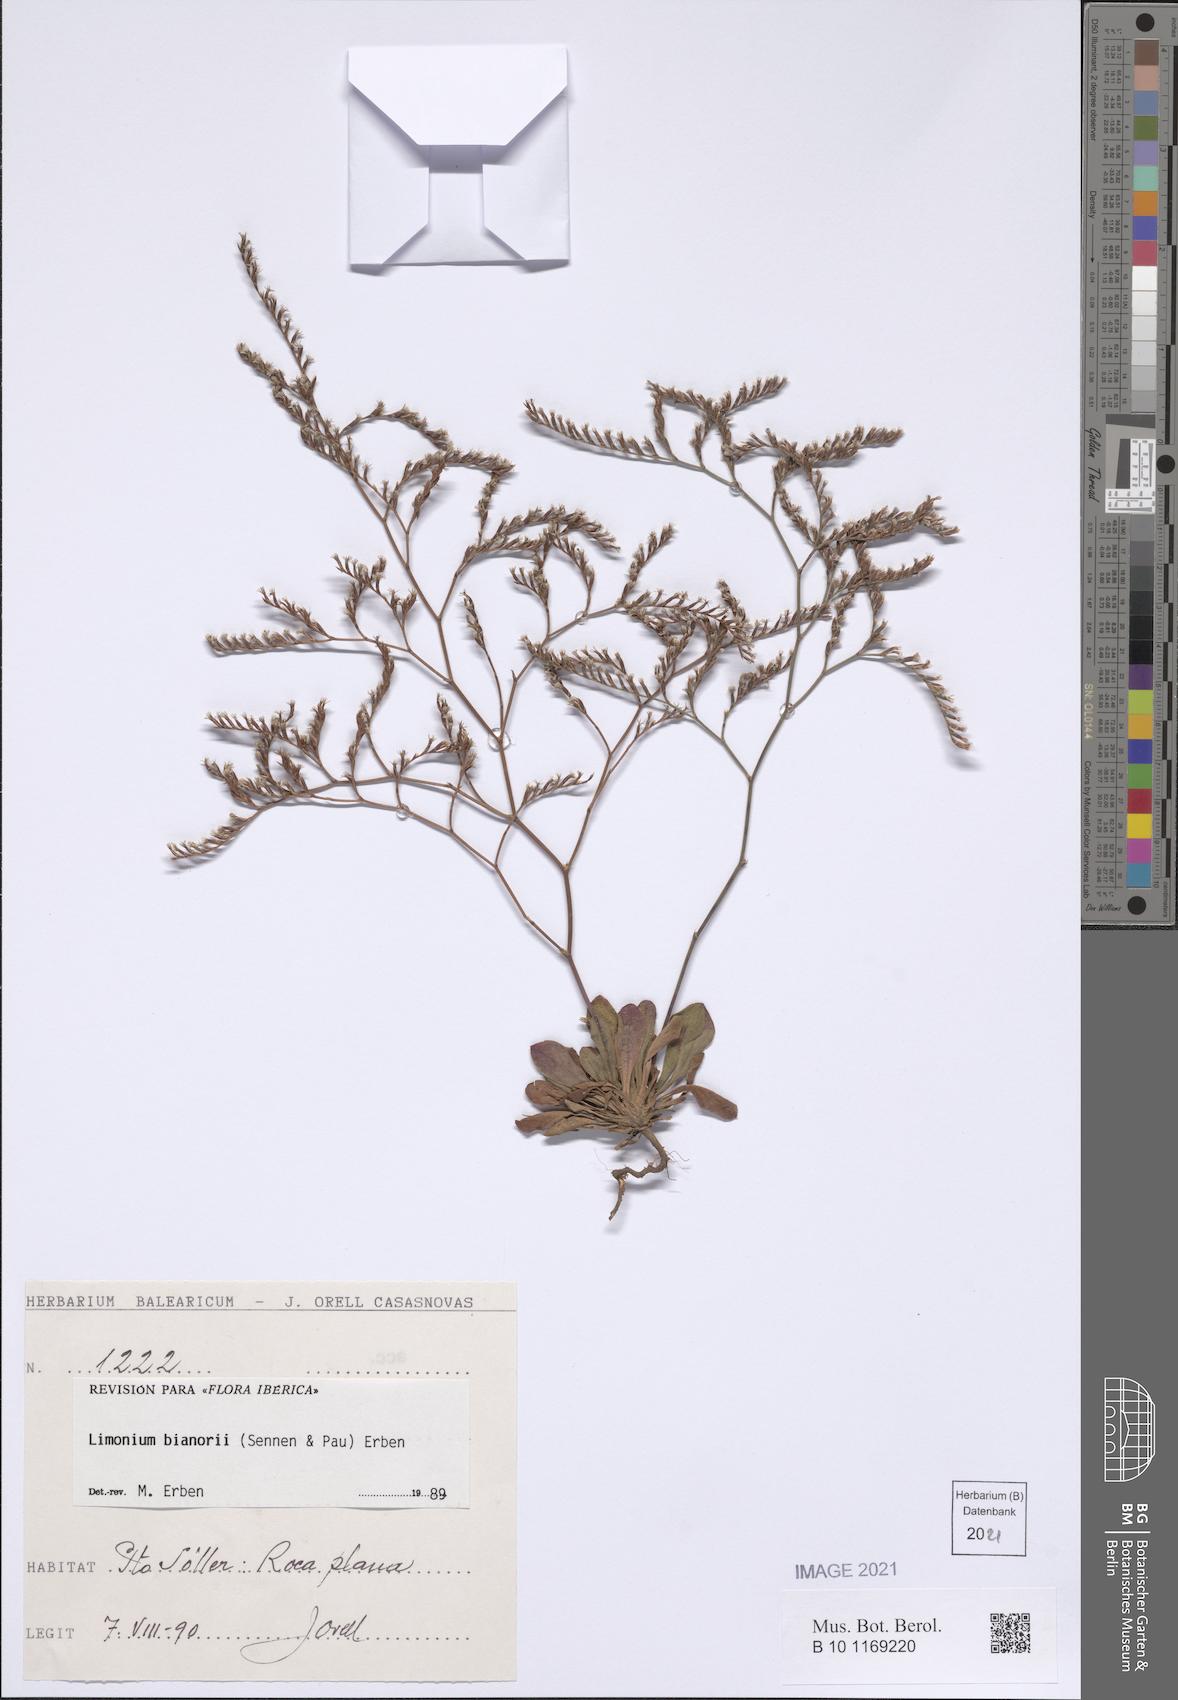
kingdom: Plantae
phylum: Tracheophyta
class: Magnoliopsida
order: Caryophyllales
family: Plumbaginaceae
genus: Limonium
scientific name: Limonium bianorii
